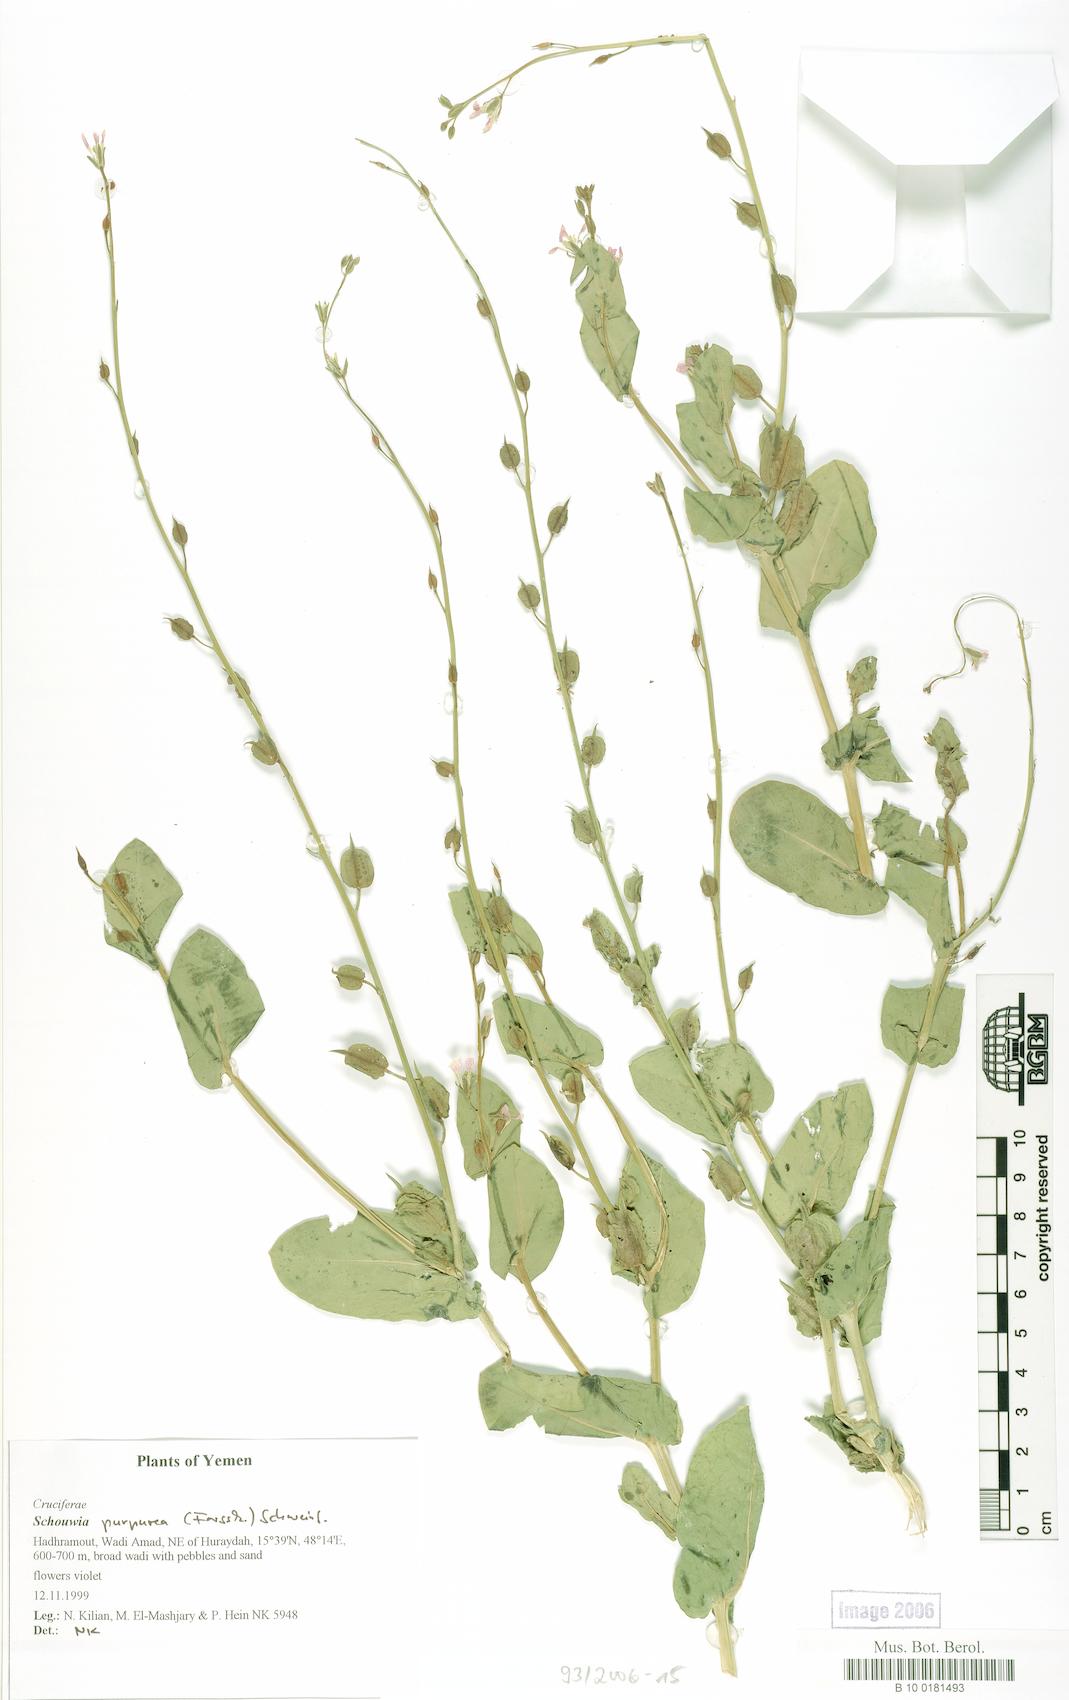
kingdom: Plantae
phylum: Tracheophyta
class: Magnoliopsida
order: Brassicales
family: Brassicaceae
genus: Schouwia
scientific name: Schouwia purpurea
